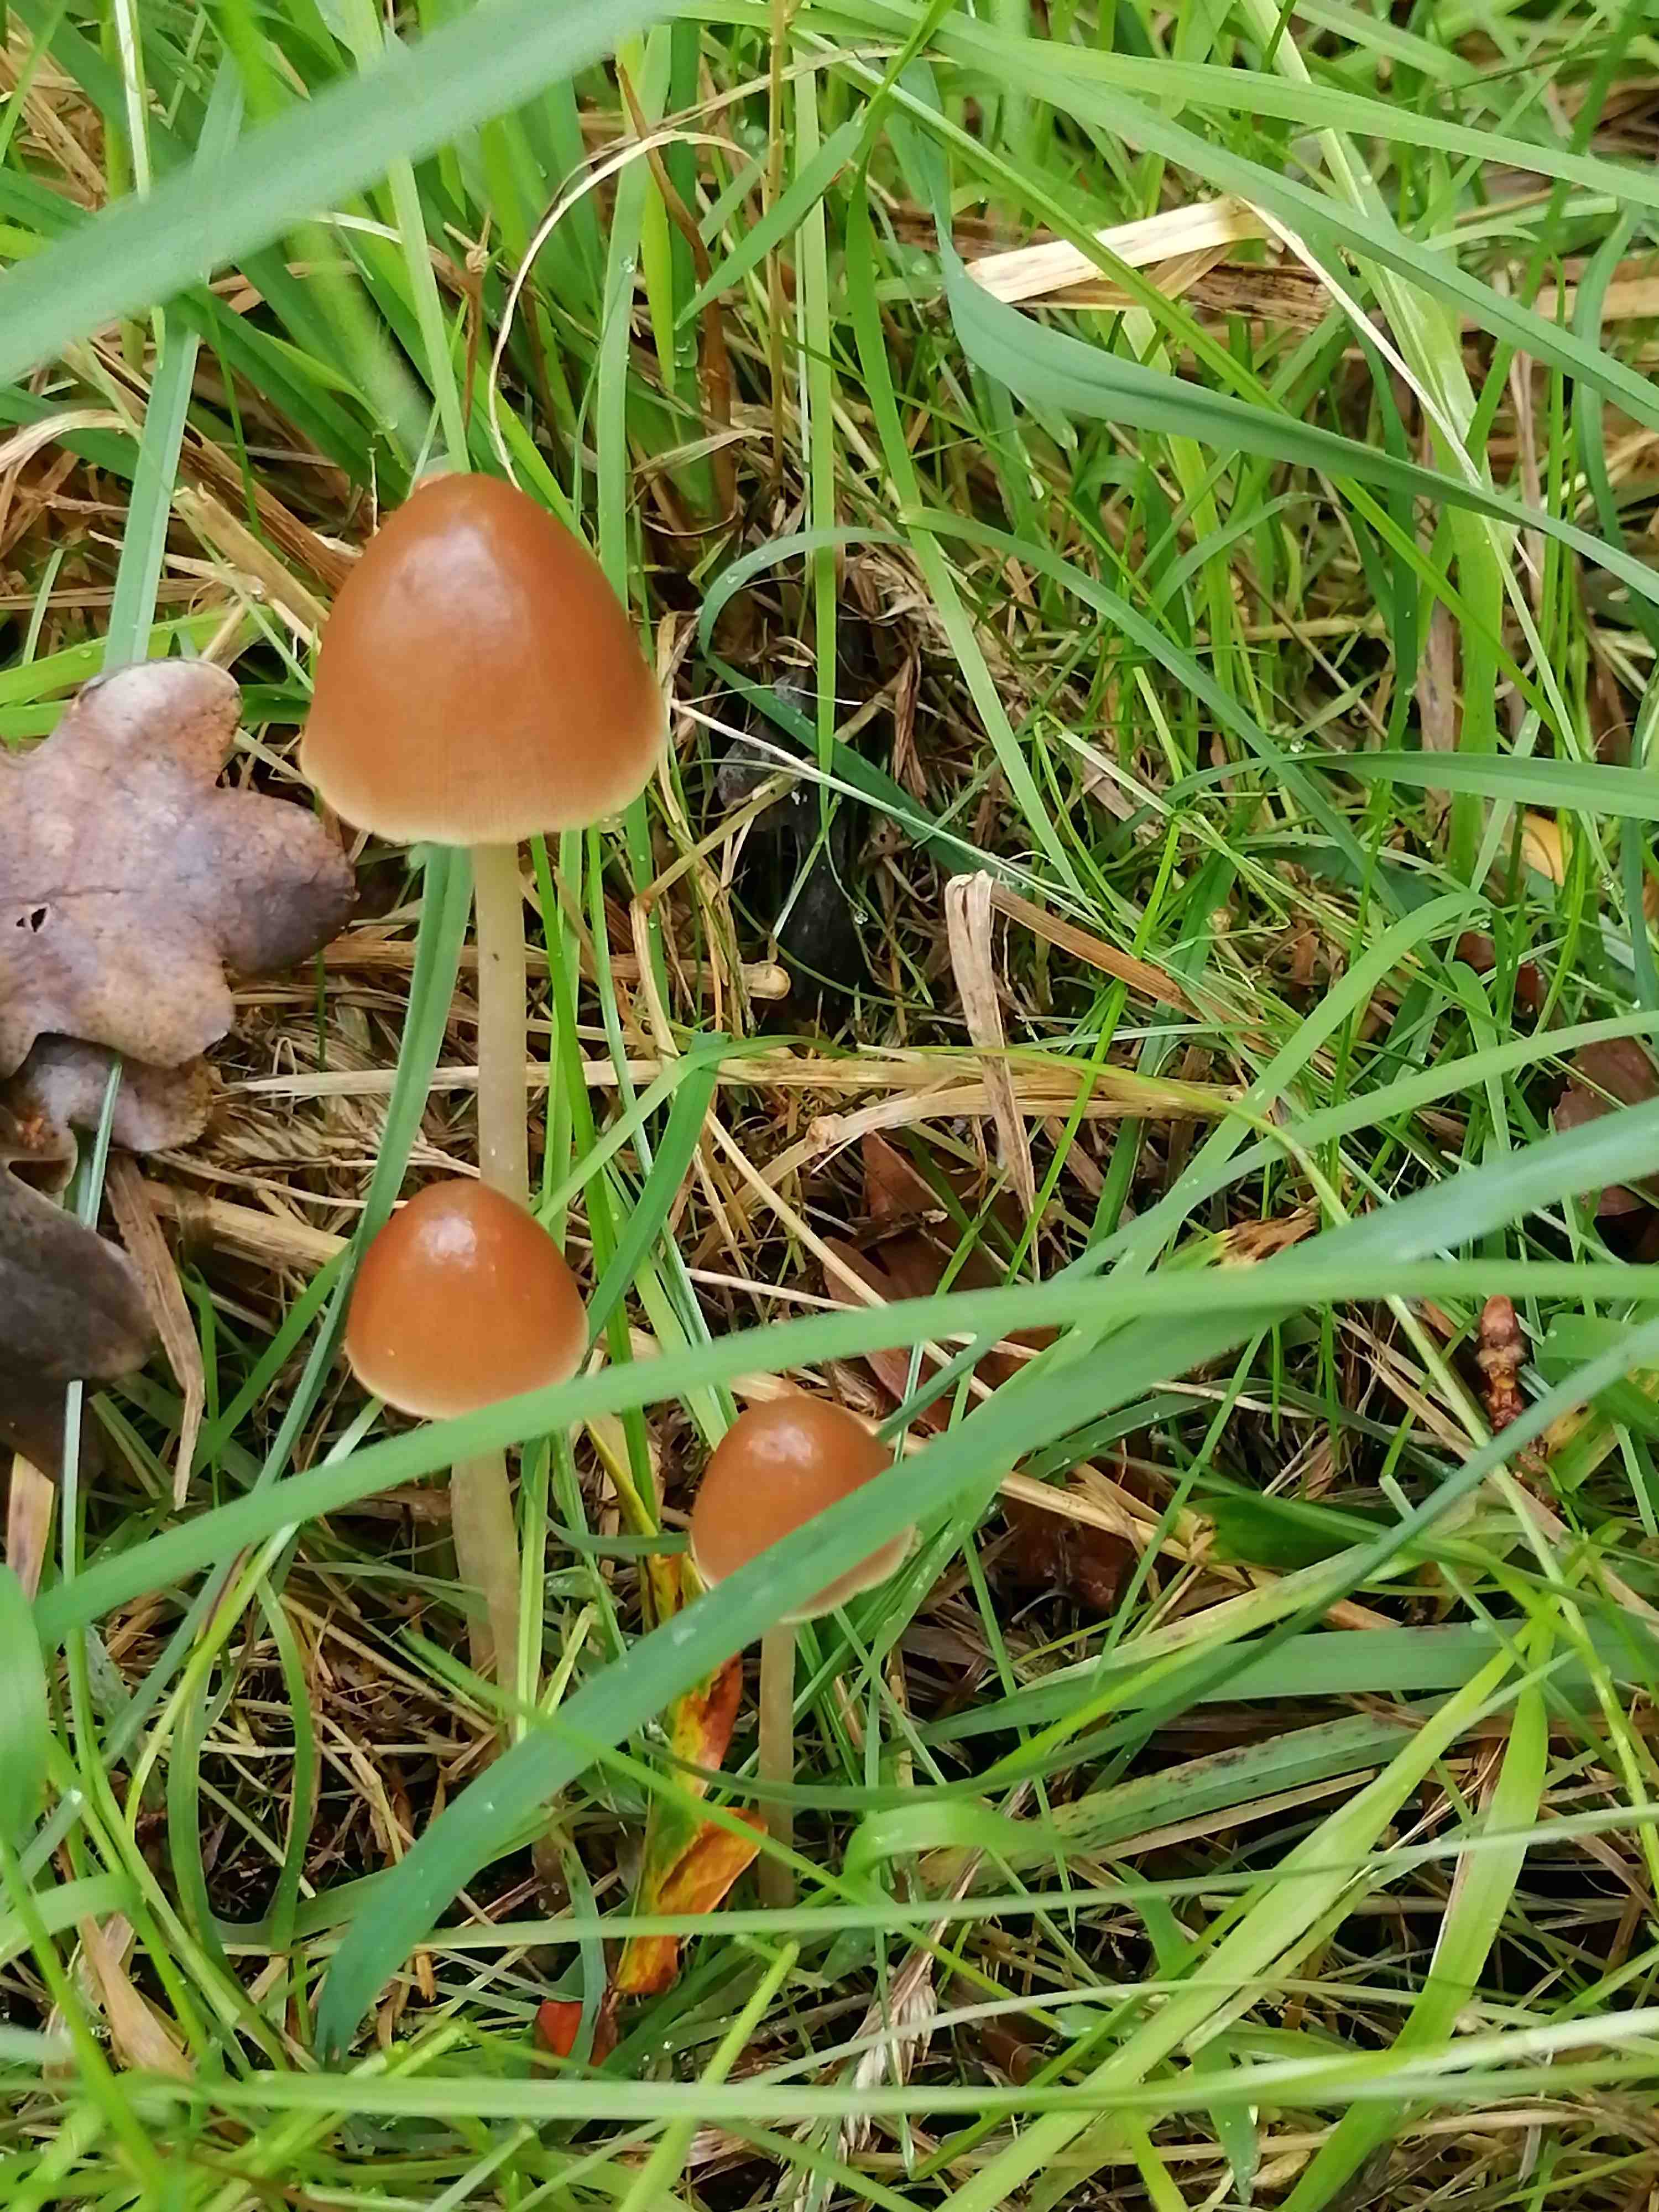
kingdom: Fungi
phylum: Basidiomycota
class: Agaricomycetes
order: Agaricales
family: Psathyrellaceae
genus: Parasola
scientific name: Parasola conopilea
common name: kegle-hjulhat
